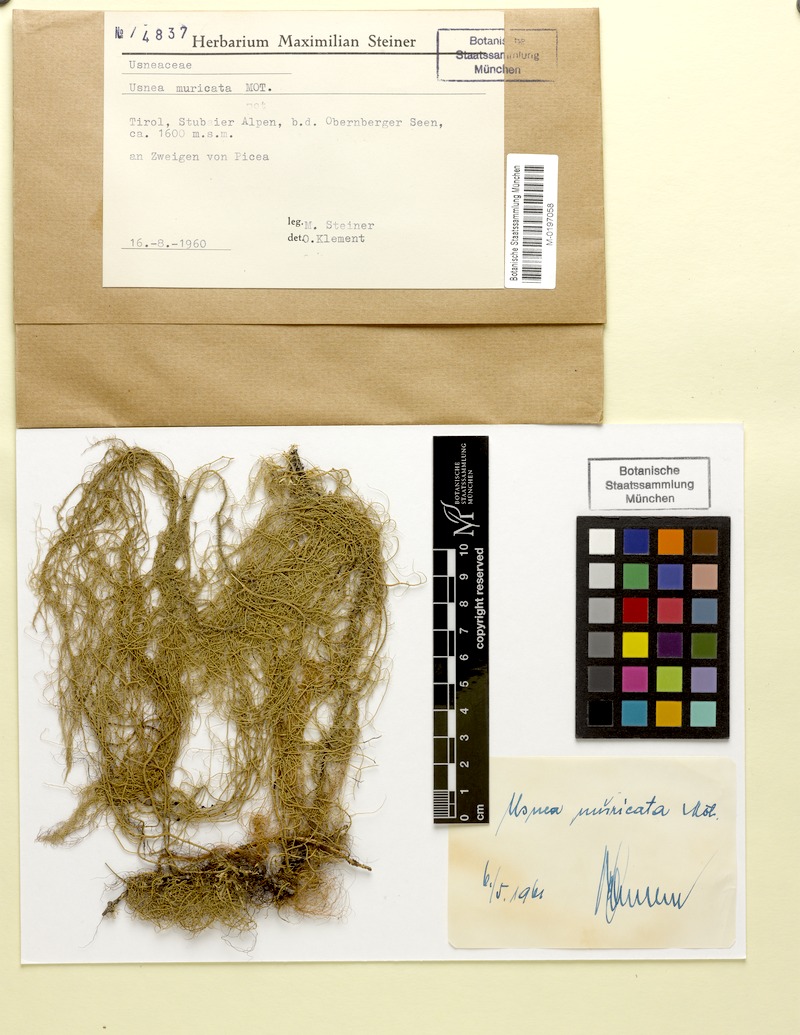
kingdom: Fungi
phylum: Ascomycota
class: Lecanoromycetes
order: Lecanorales
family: Parmeliaceae
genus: Usnea
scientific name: Usnea filipendula
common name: Fishbone beard lichen
